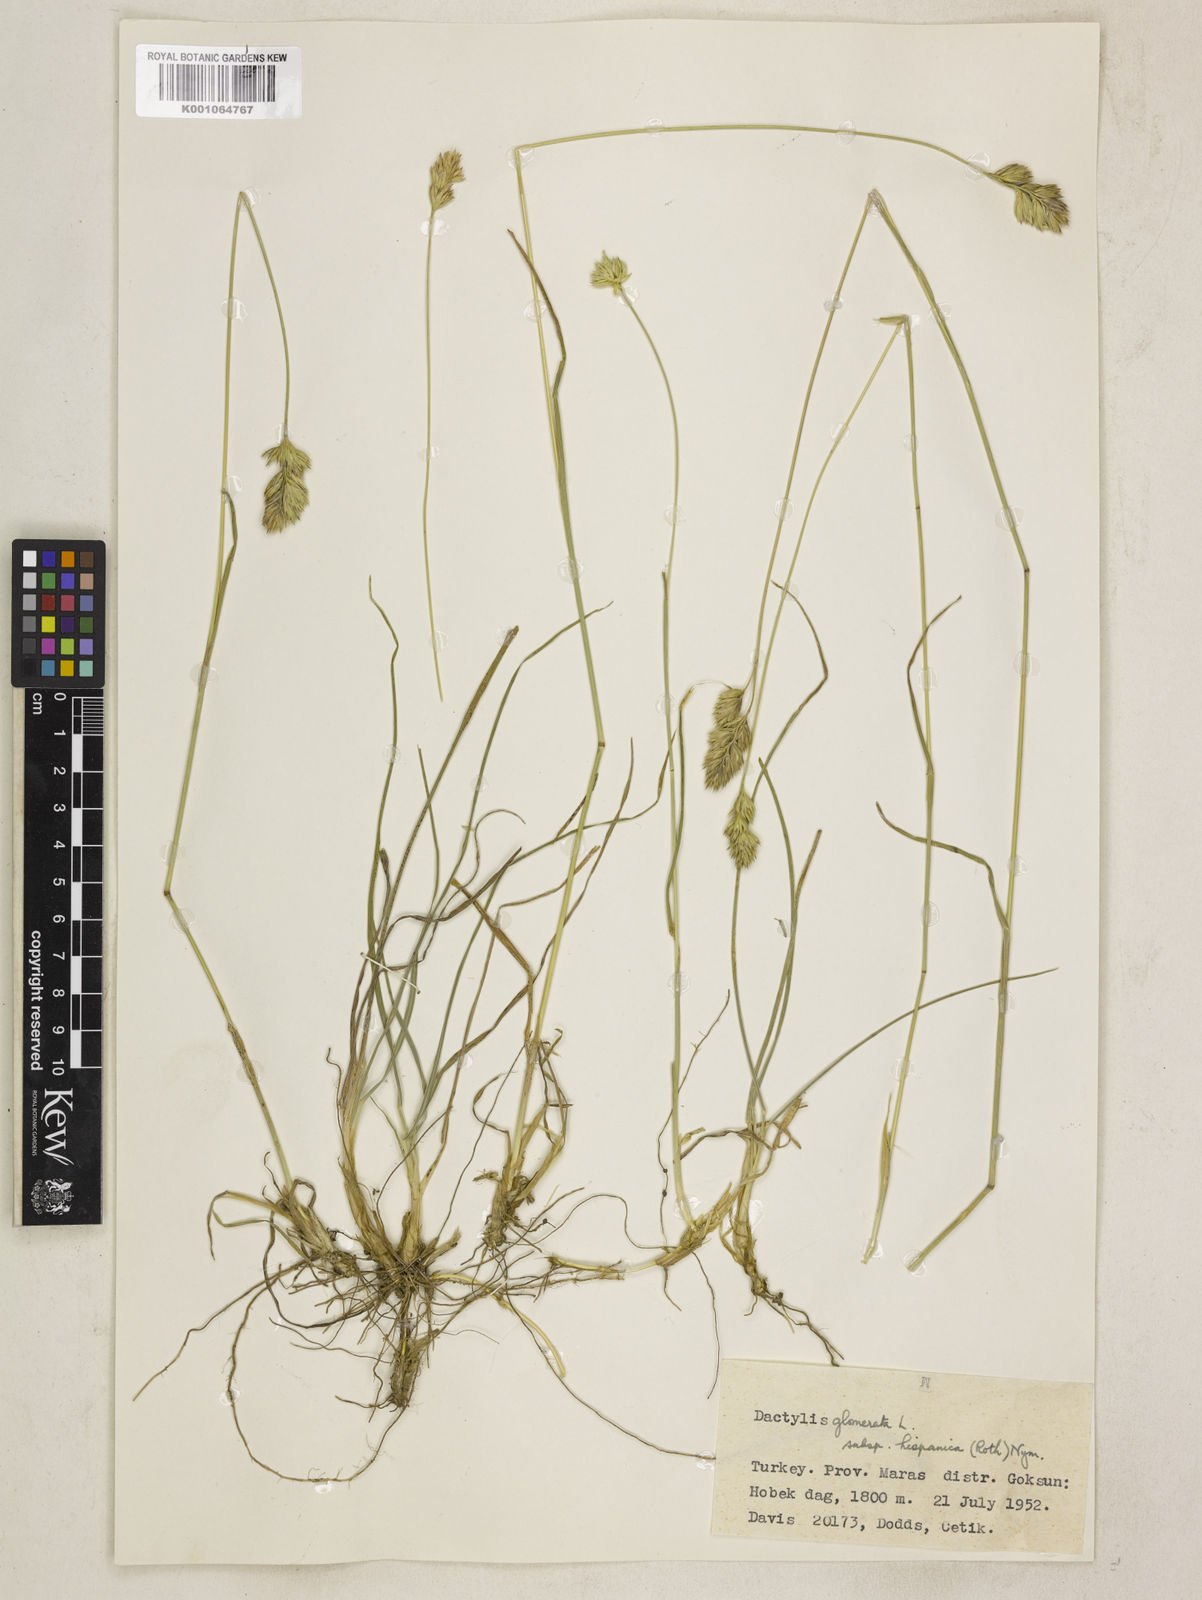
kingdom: Plantae
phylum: Tracheophyta
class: Liliopsida
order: Poales
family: Poaceae
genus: Dactylis
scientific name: Dactylis glomerata
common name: Orchardgrass
